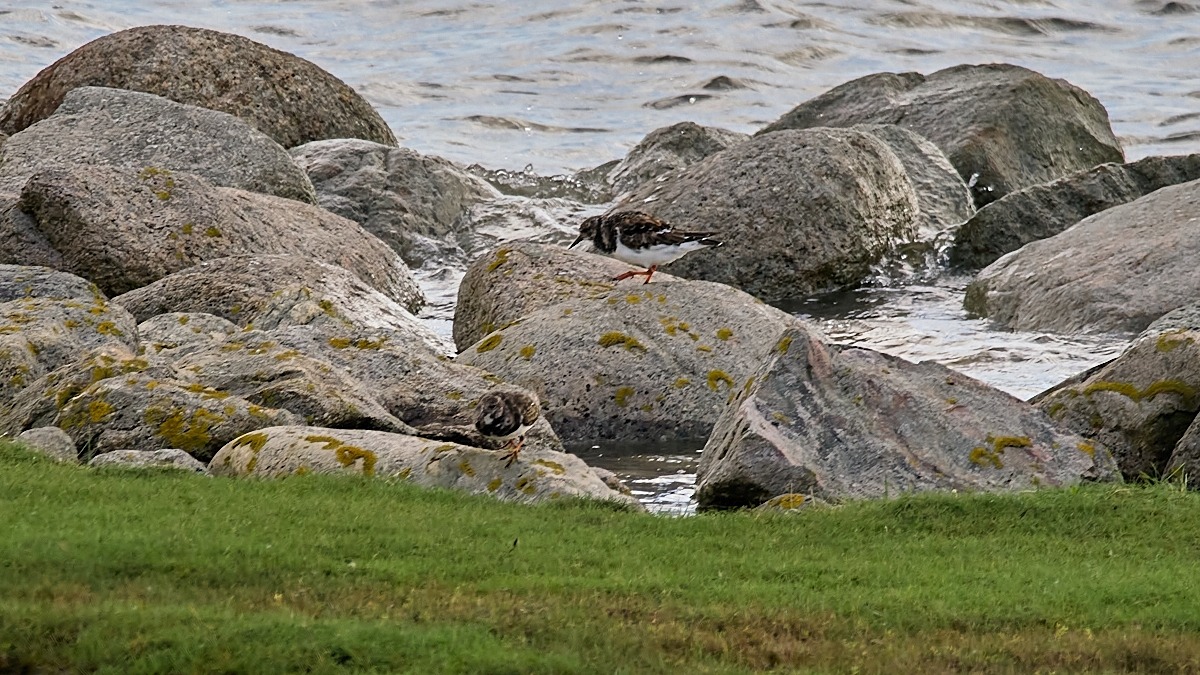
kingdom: Animalia
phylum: Chordata
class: Aves
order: Charadriiformes
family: Scolopacidae
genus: Arenaria
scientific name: Arenaria interpres
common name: Stenvender
